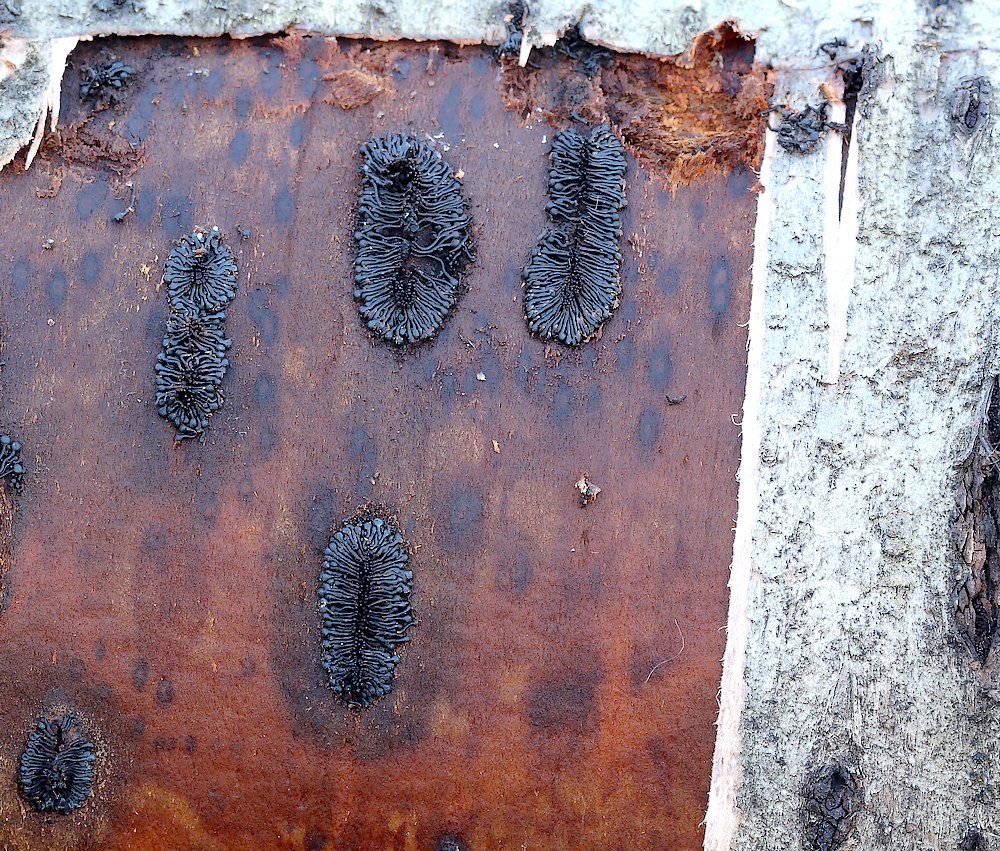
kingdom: Fungi
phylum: Ascomycota
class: Sordariomycetes
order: Calosphaeriales
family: Calosphaeriaceae
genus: Calosphaeria
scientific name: Calosphaeria pulchella
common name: smuk slyngkerne
